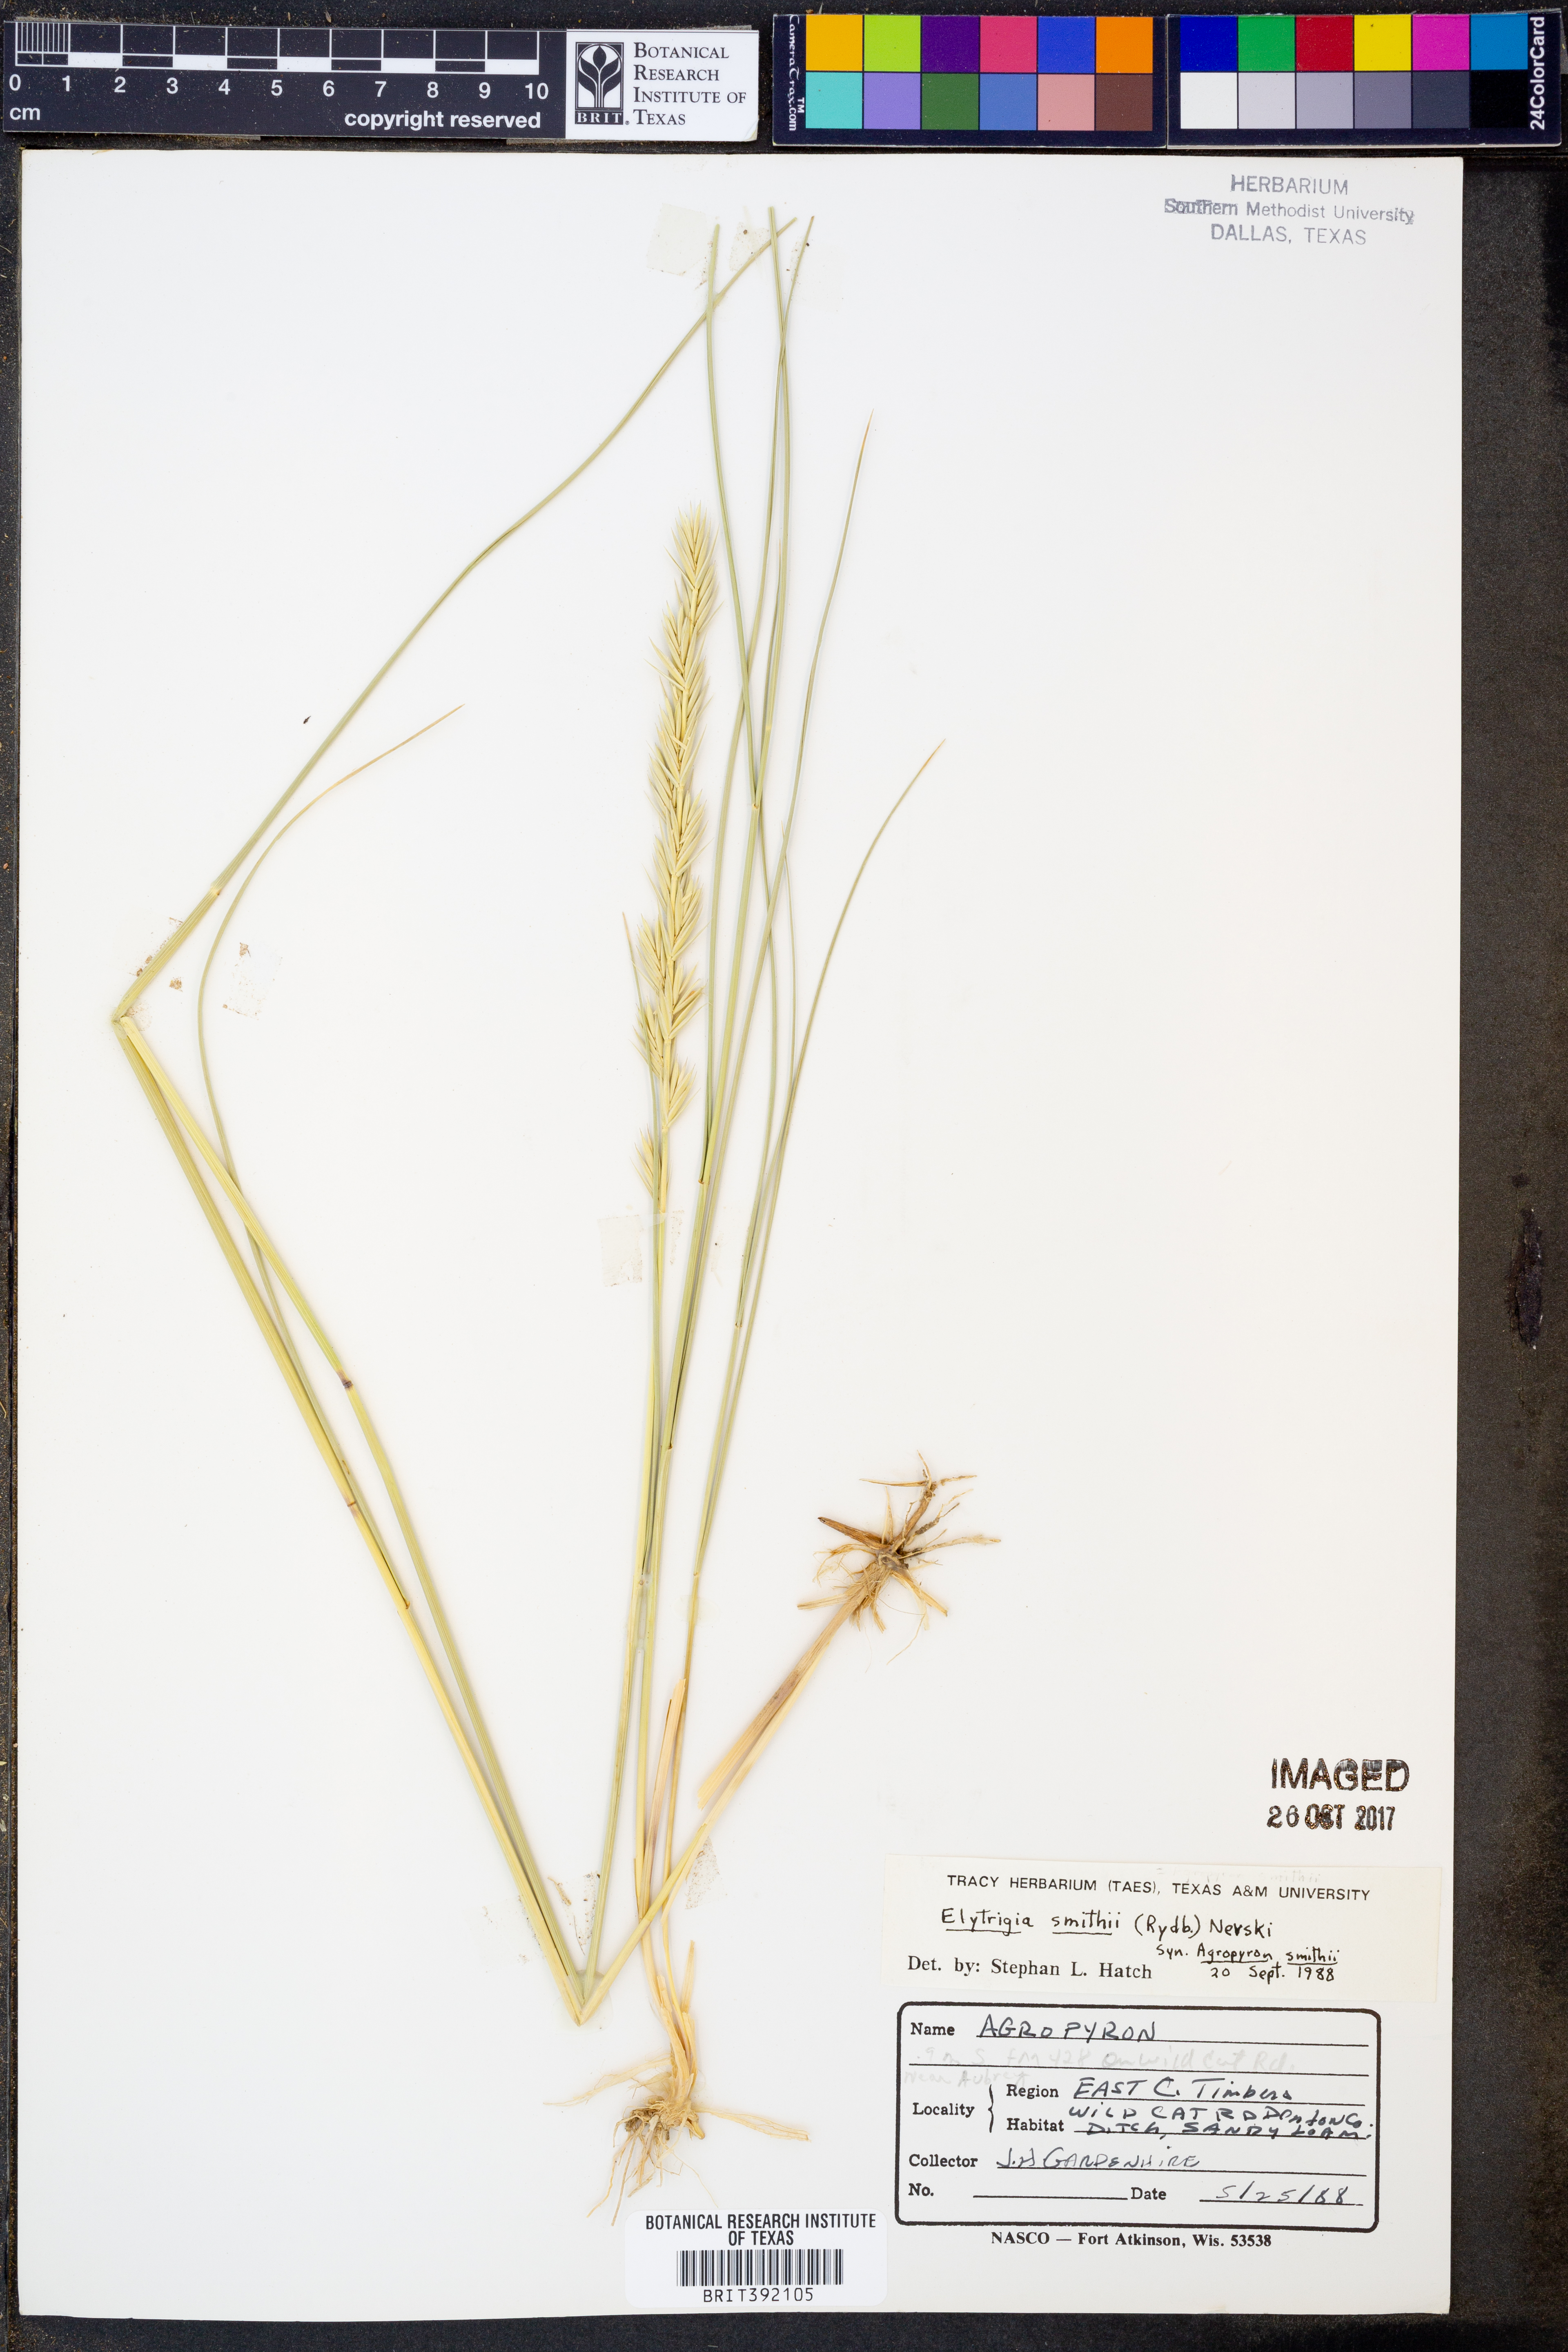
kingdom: Plantae
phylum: Tracheophyta
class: Liliopsida
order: Poales
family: Poaceae
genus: Elymus
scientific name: Elymus smithii
